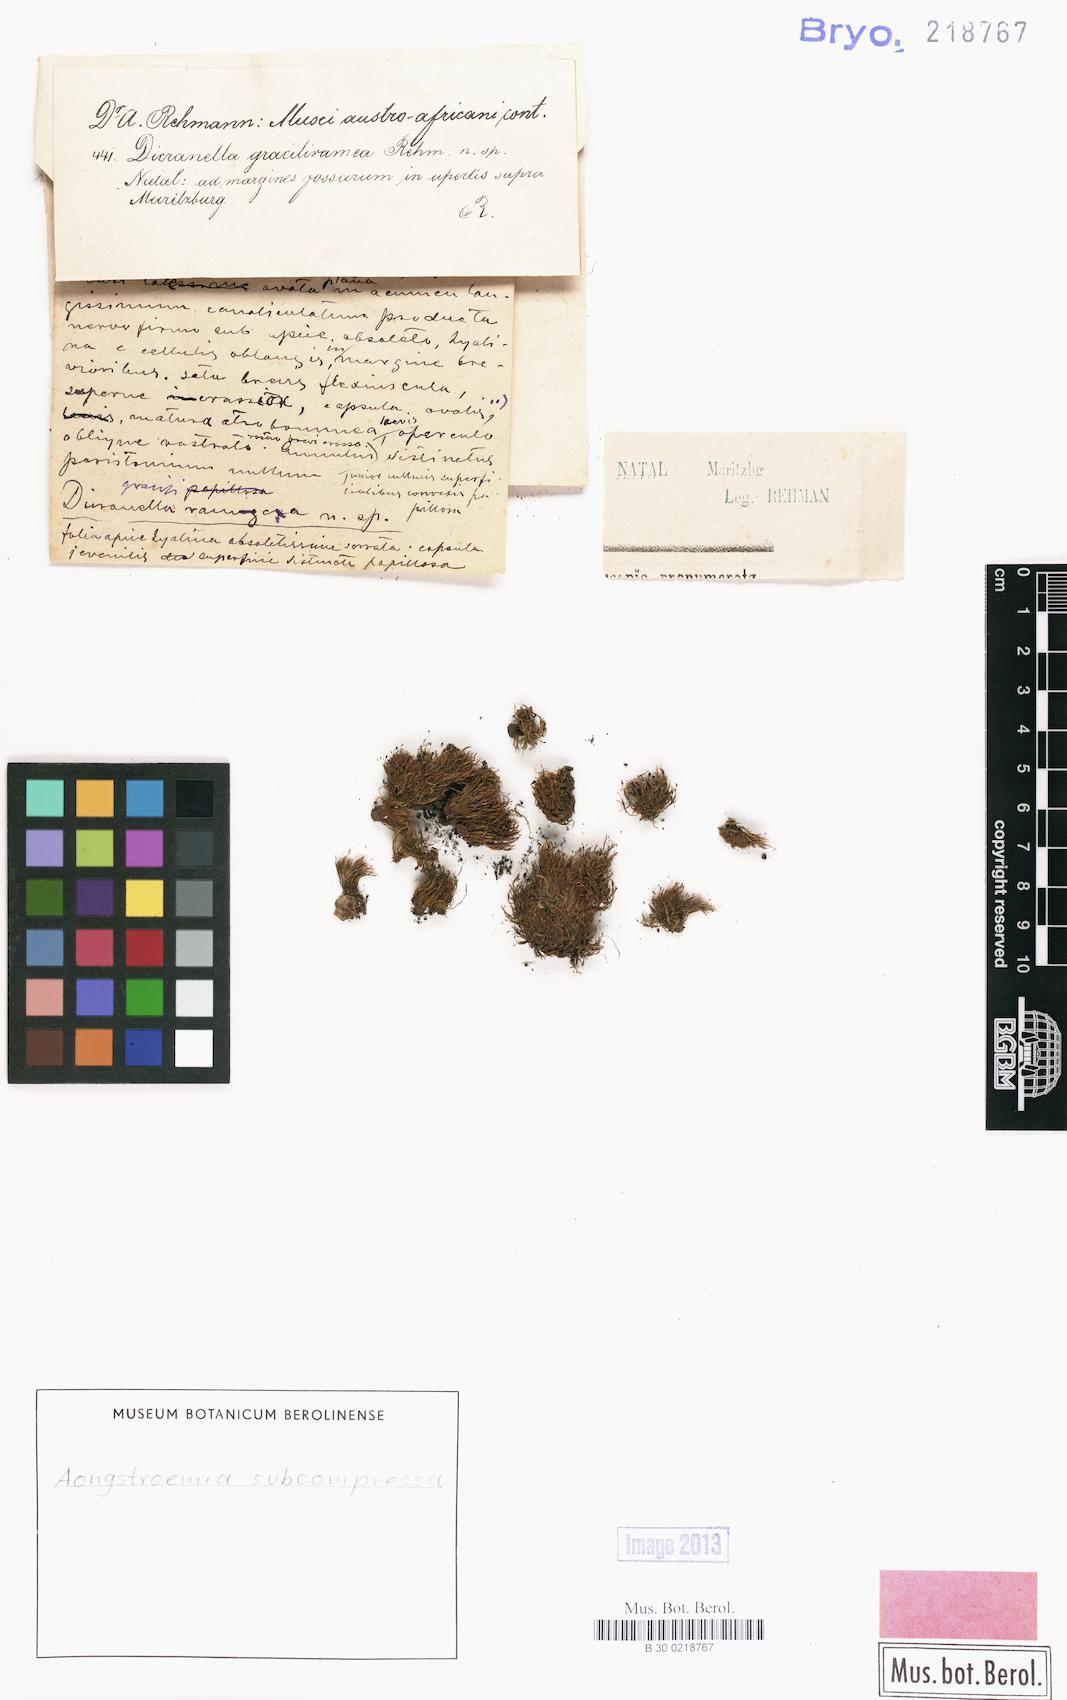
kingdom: Plantae
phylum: Bryophyta
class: Bryopsida
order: Dicranales
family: Aongstroemiaceae
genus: Aongstroemia
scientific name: Aongstroemia subcompressa
